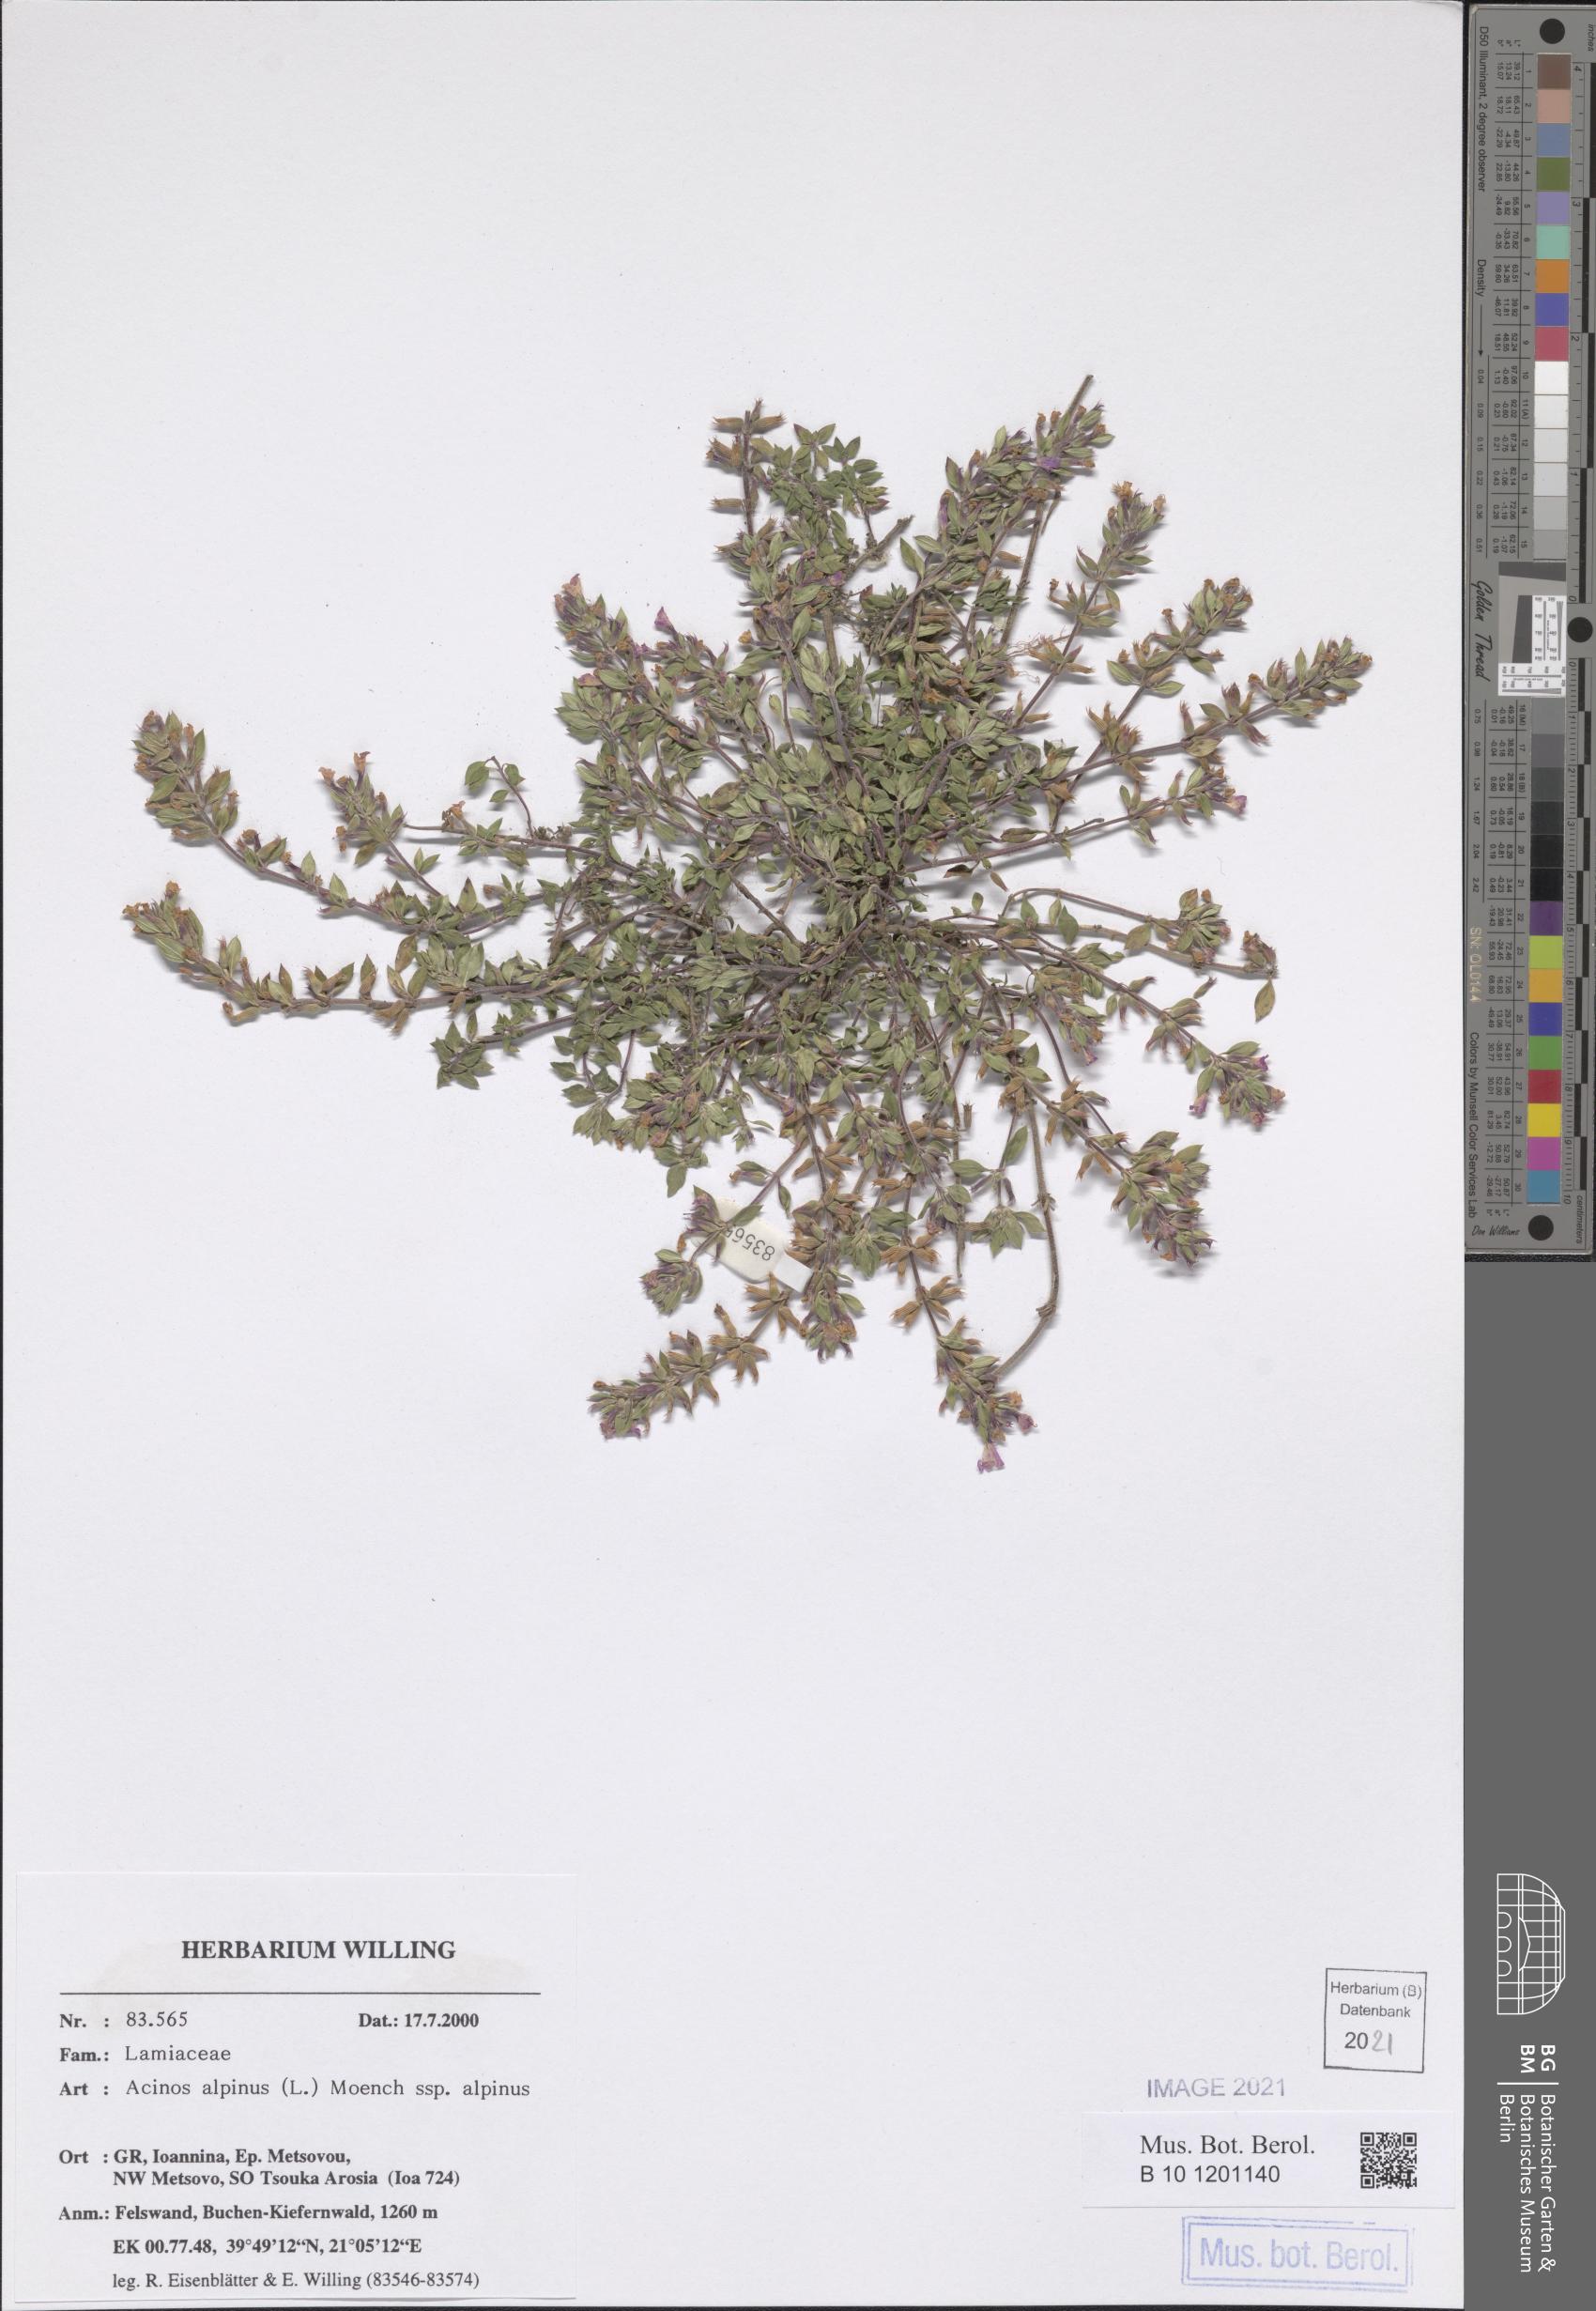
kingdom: Plantae
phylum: Tracheophyta
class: Magnoliopsida
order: Lamiales
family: Lamiaceae
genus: Clinopodium
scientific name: Clinopodium alpinum
